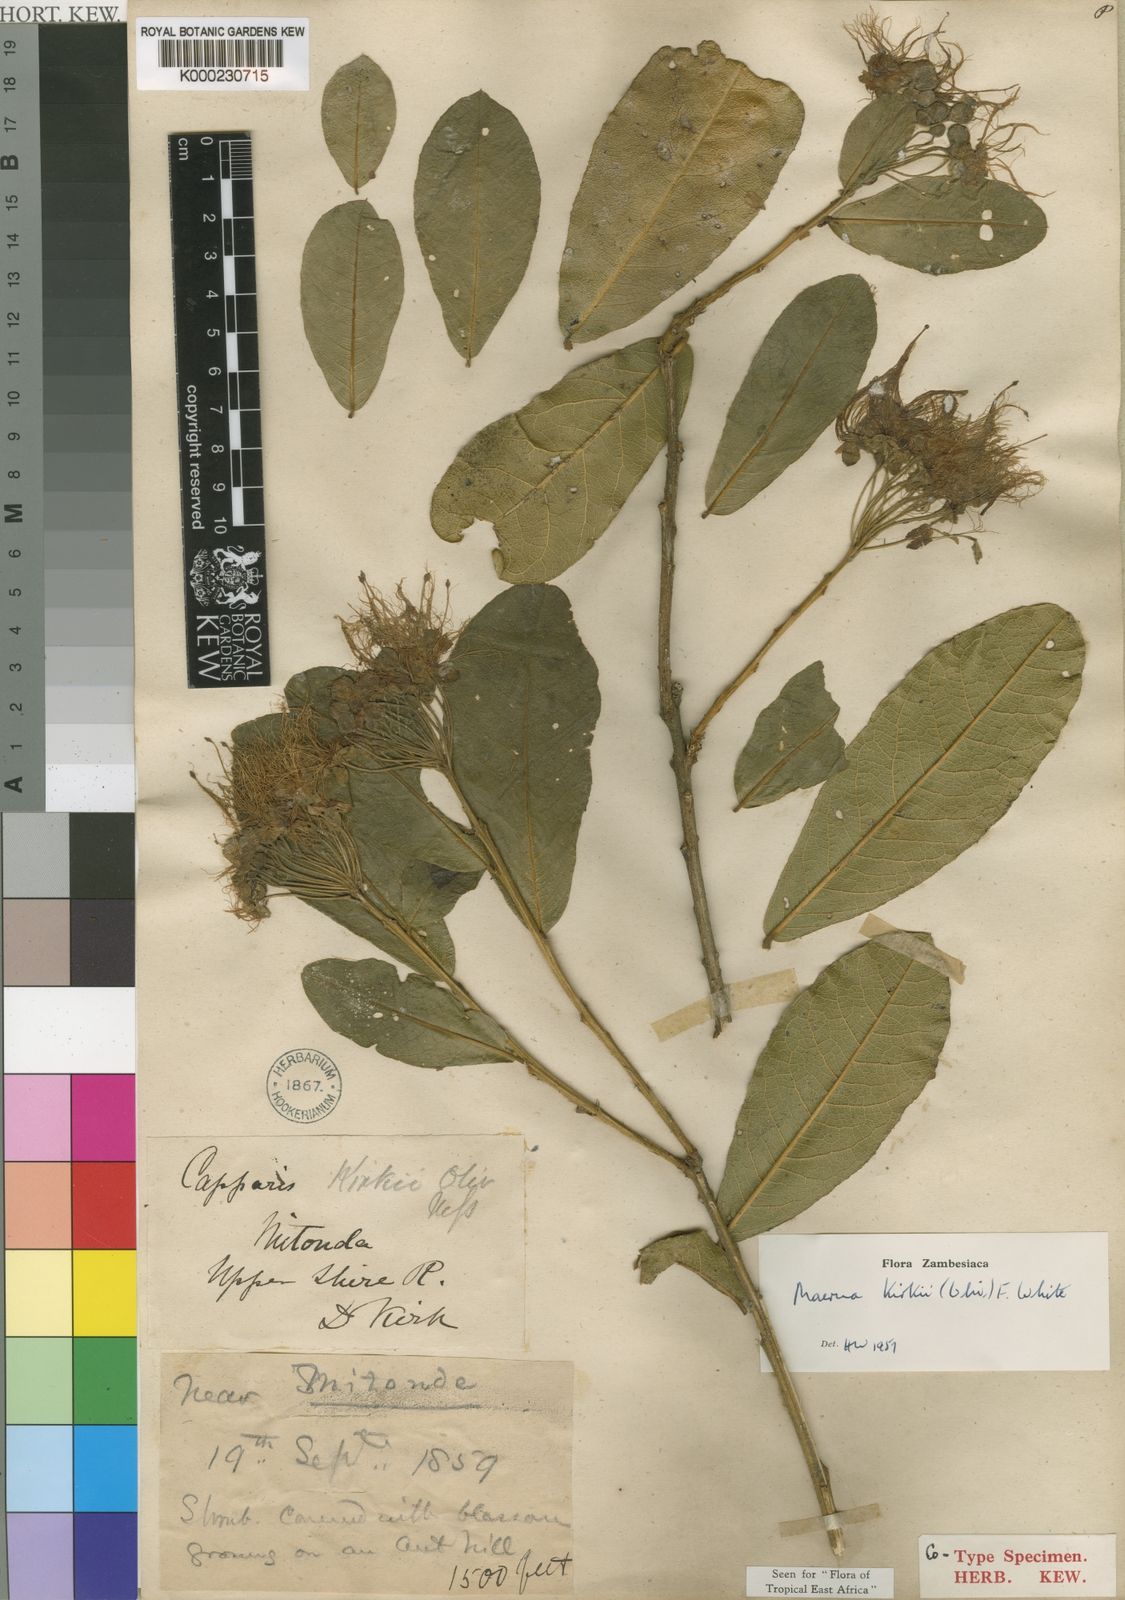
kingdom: Plantae
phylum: Tracheophyta
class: Magnoliopsida
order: Brassicales
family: Capparaceae
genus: Maerua
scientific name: Maerua kirkii
